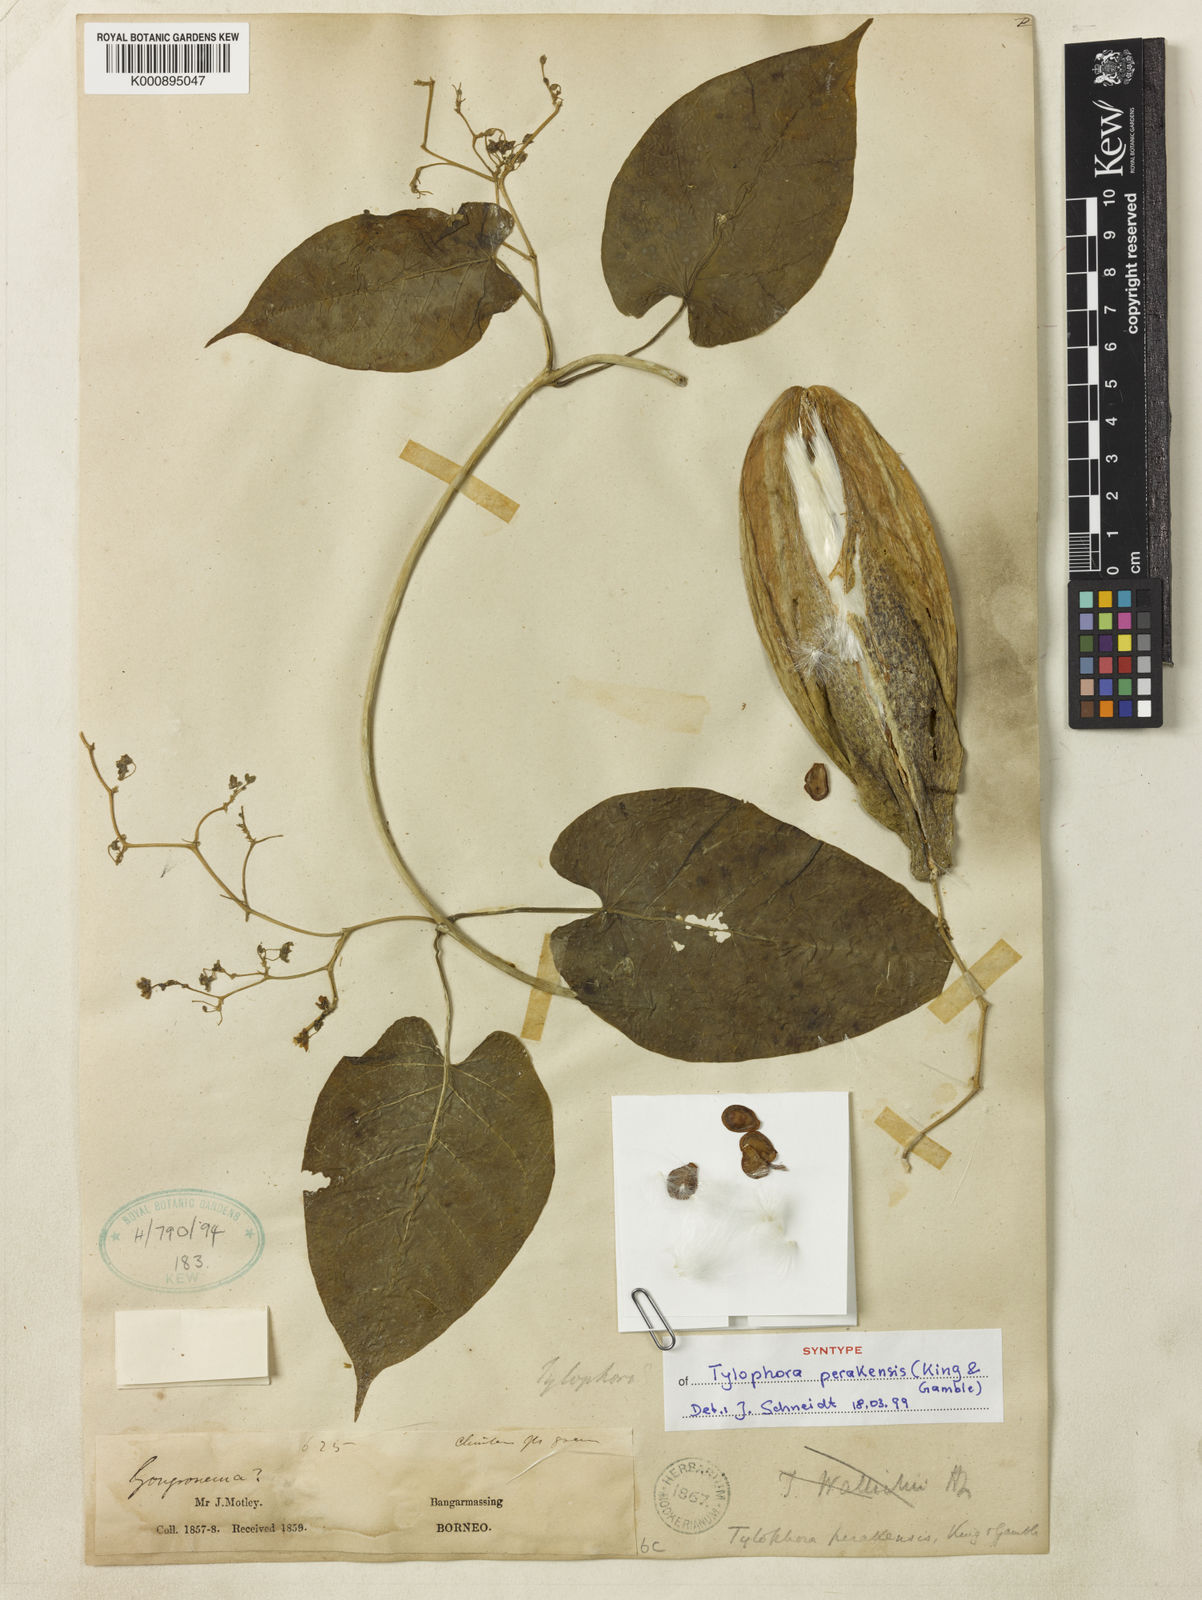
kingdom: Plantae
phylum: Tracheophyta
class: Magnoliopsida
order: Gentianales
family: Apocynaceae
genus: Vincetoxicum
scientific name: Vincetoxicum cissoides
